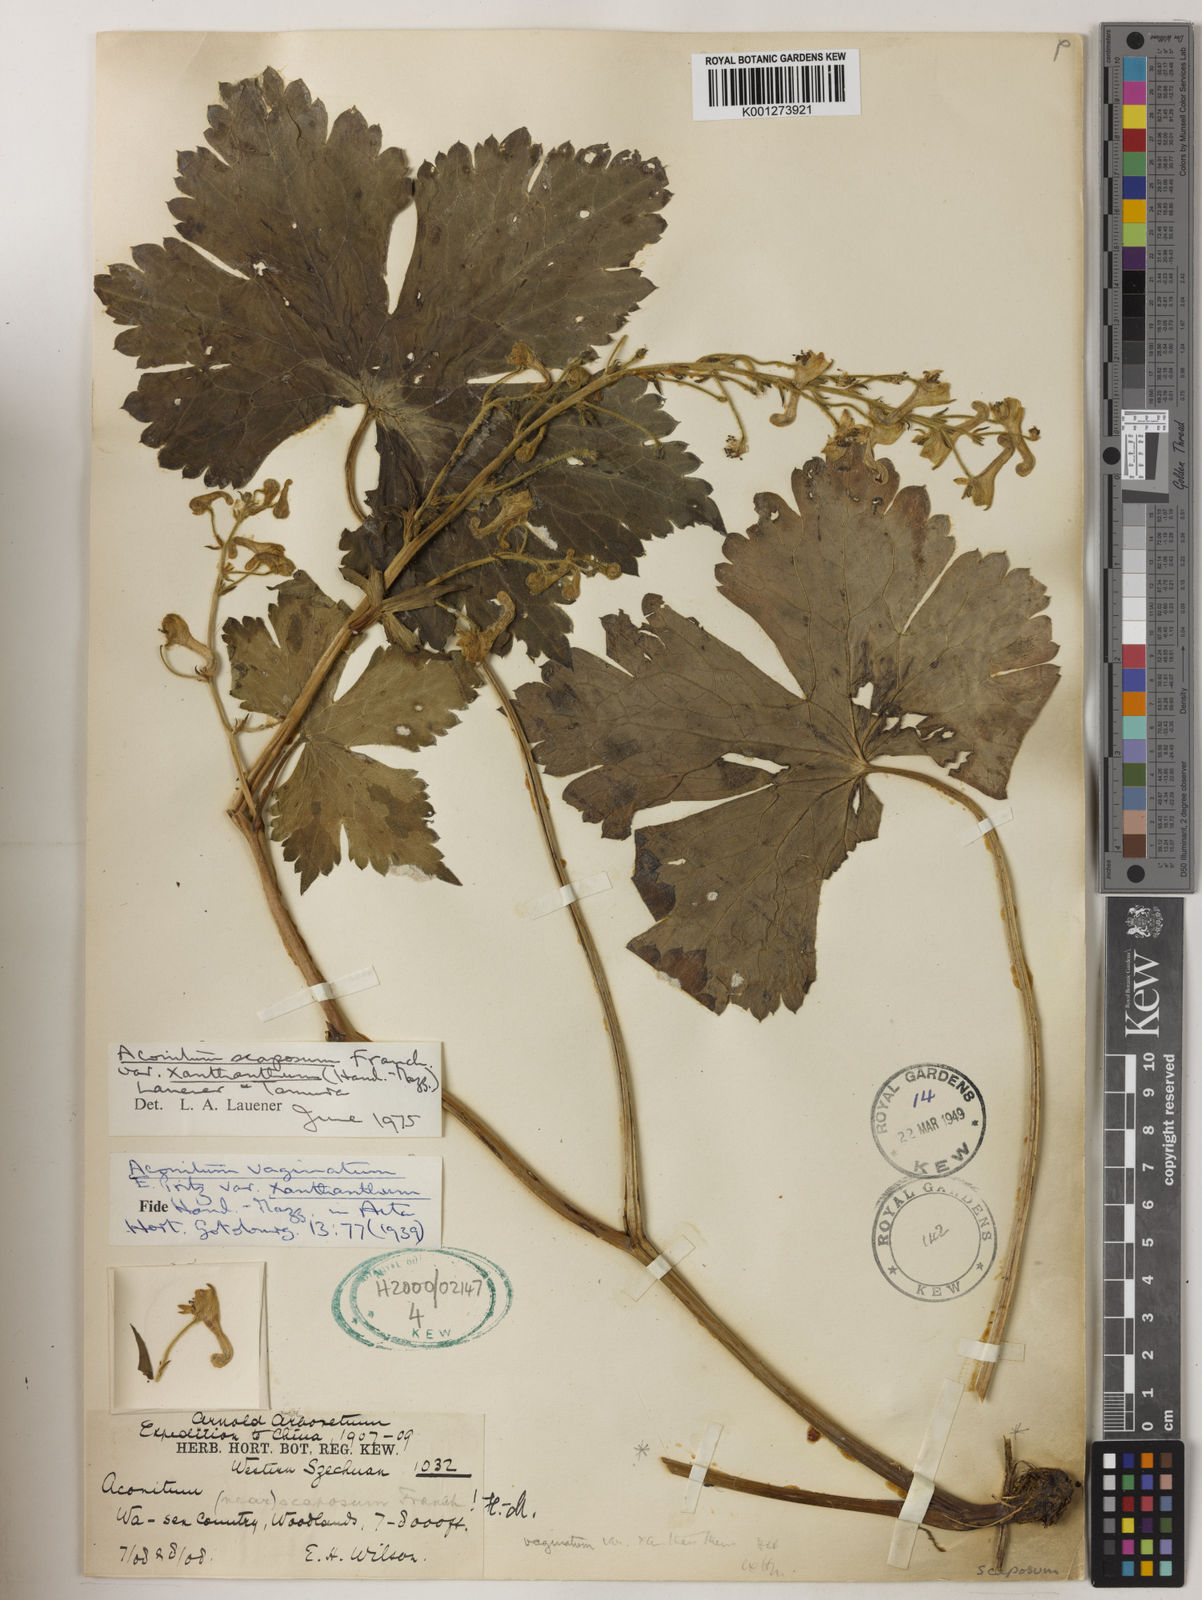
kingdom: Plantae
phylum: Tracheophyta
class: Magnoliopsida
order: Ranunculales
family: Ranunculaceae
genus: Aconitum
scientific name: Aconitum
